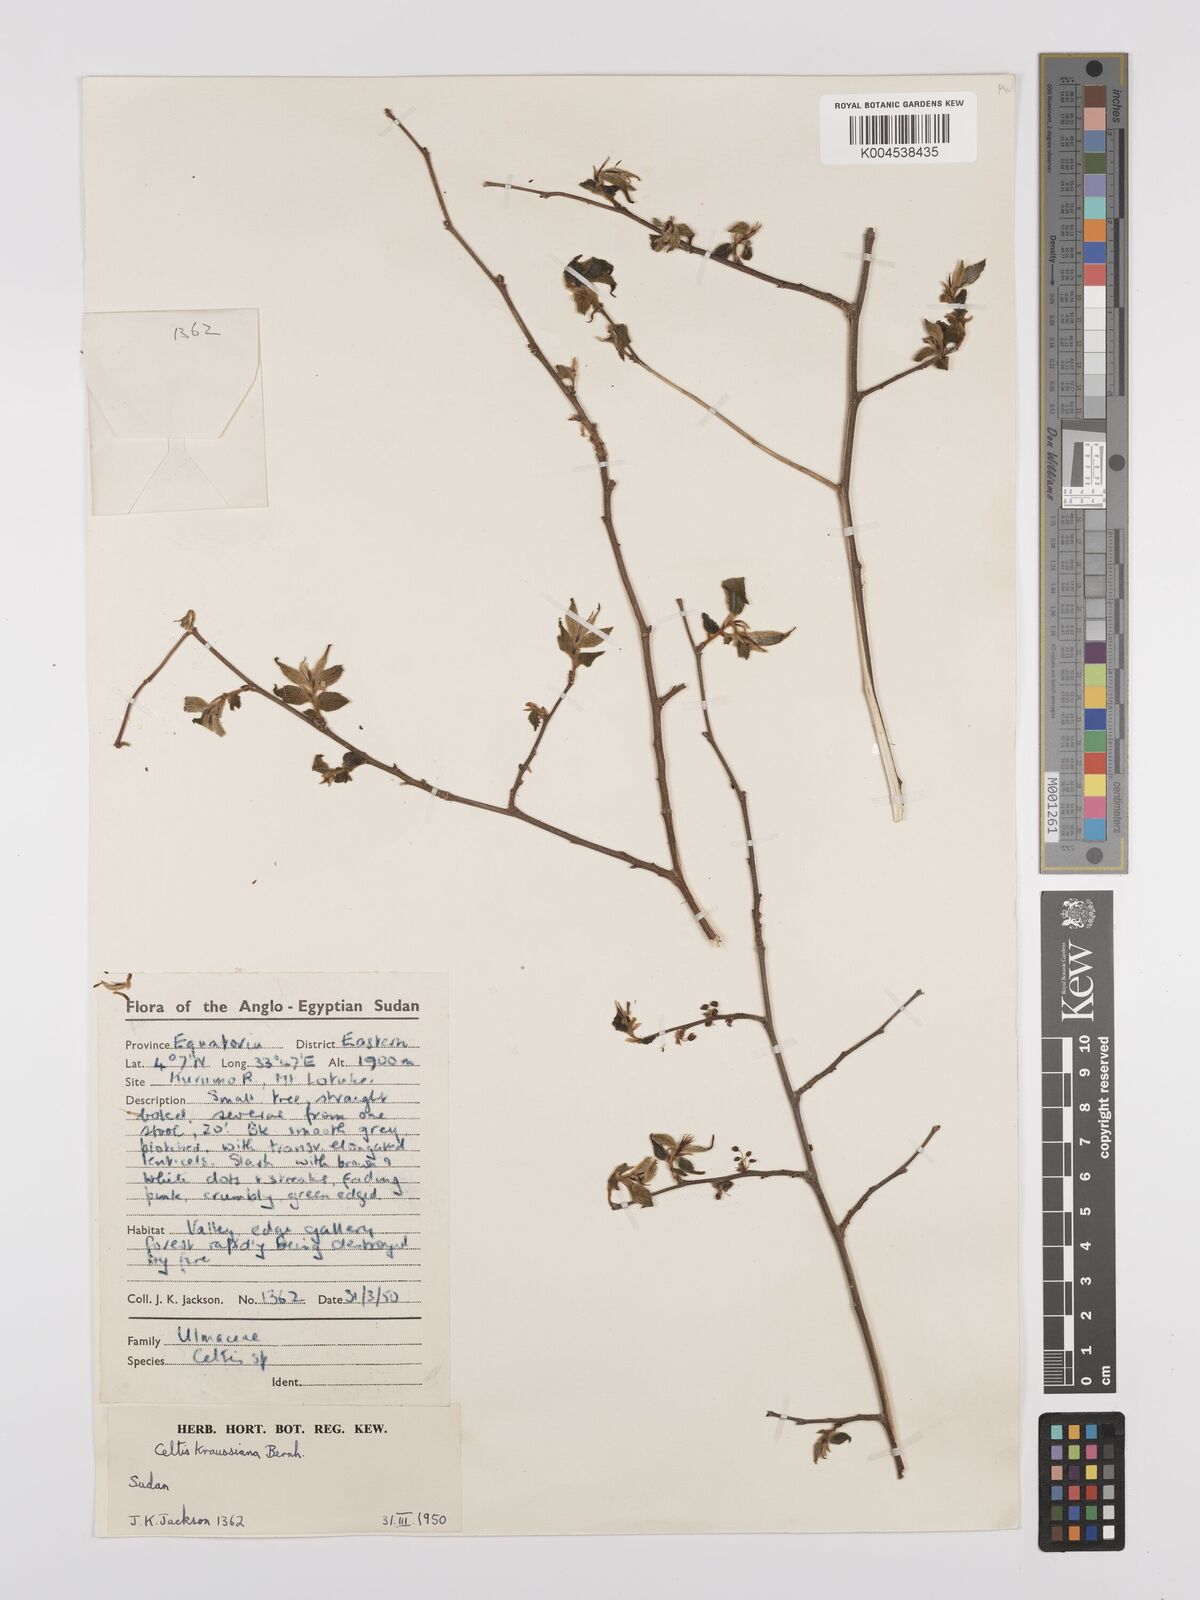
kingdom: Plantae
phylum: Tracheophyta
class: Magnoliopsida
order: Rosales
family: Cannabaceae
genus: Celtis
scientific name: Celtis africana
